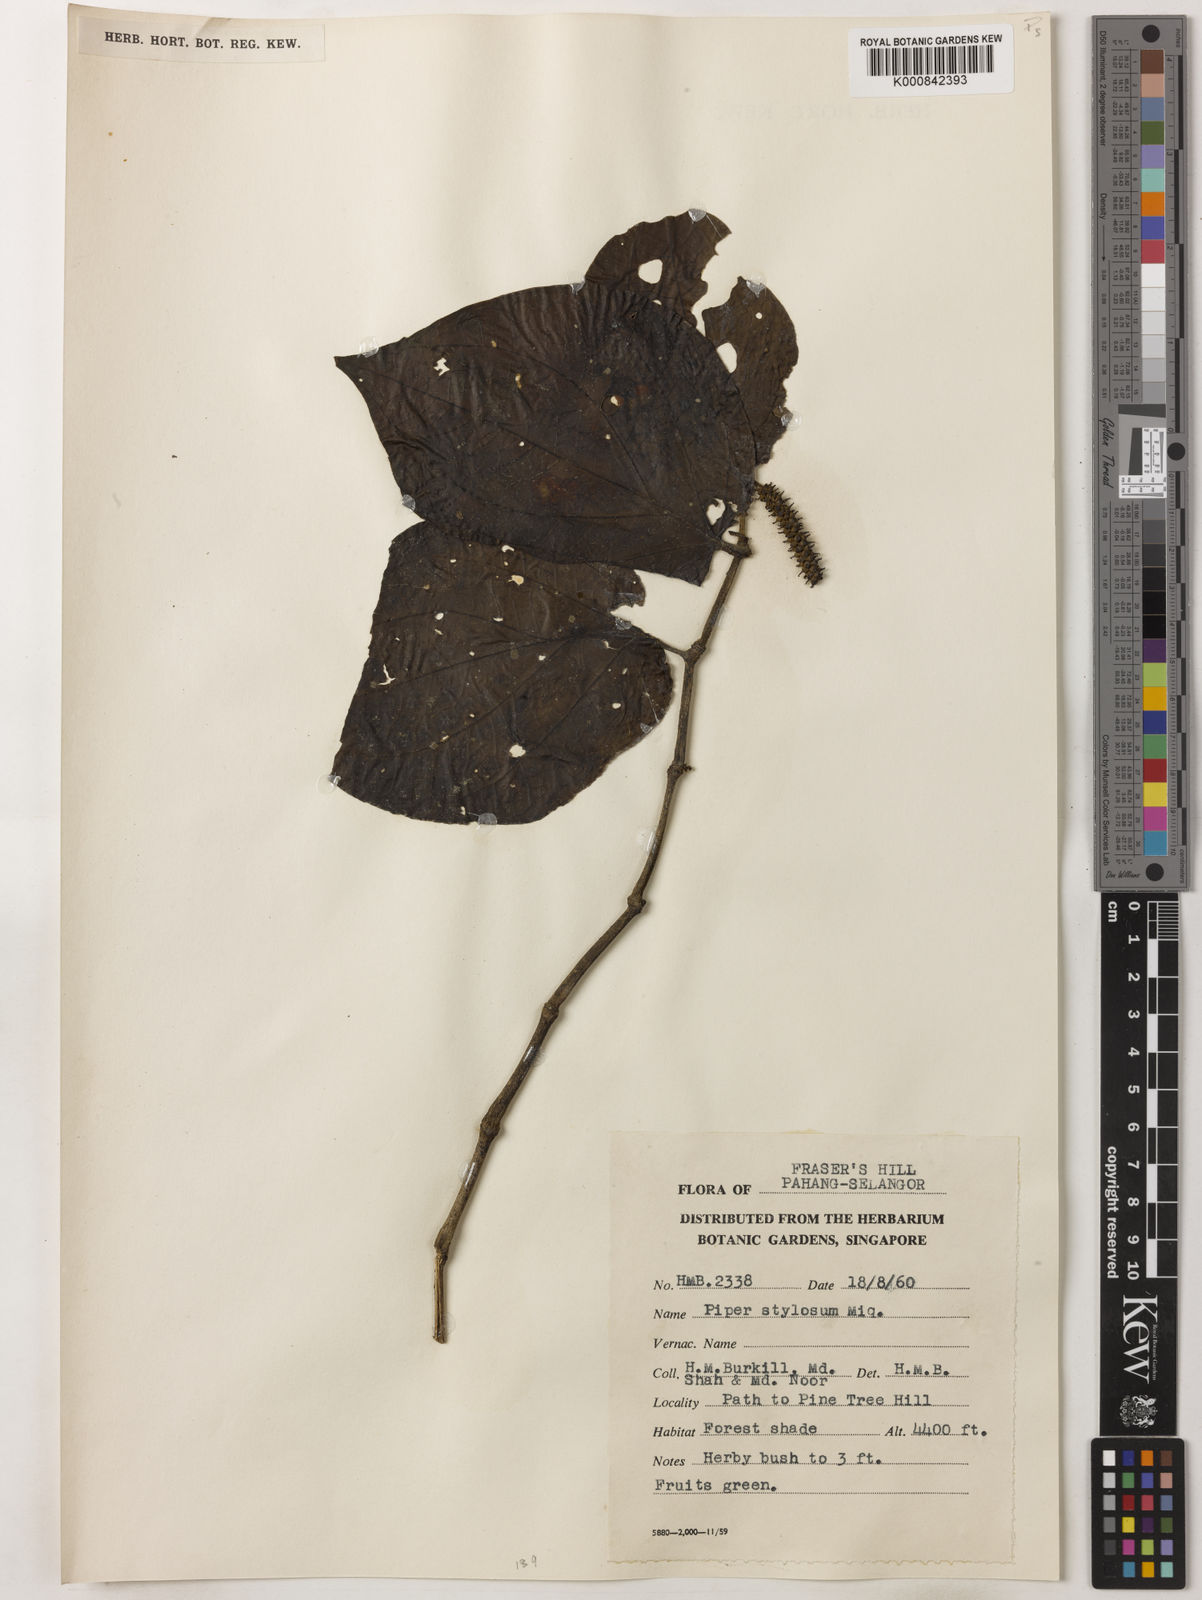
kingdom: Plantae
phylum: Tracheophyta
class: Magnoliopsida
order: Piperales
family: Piperaceae
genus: Piper
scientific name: Piper rostratum
